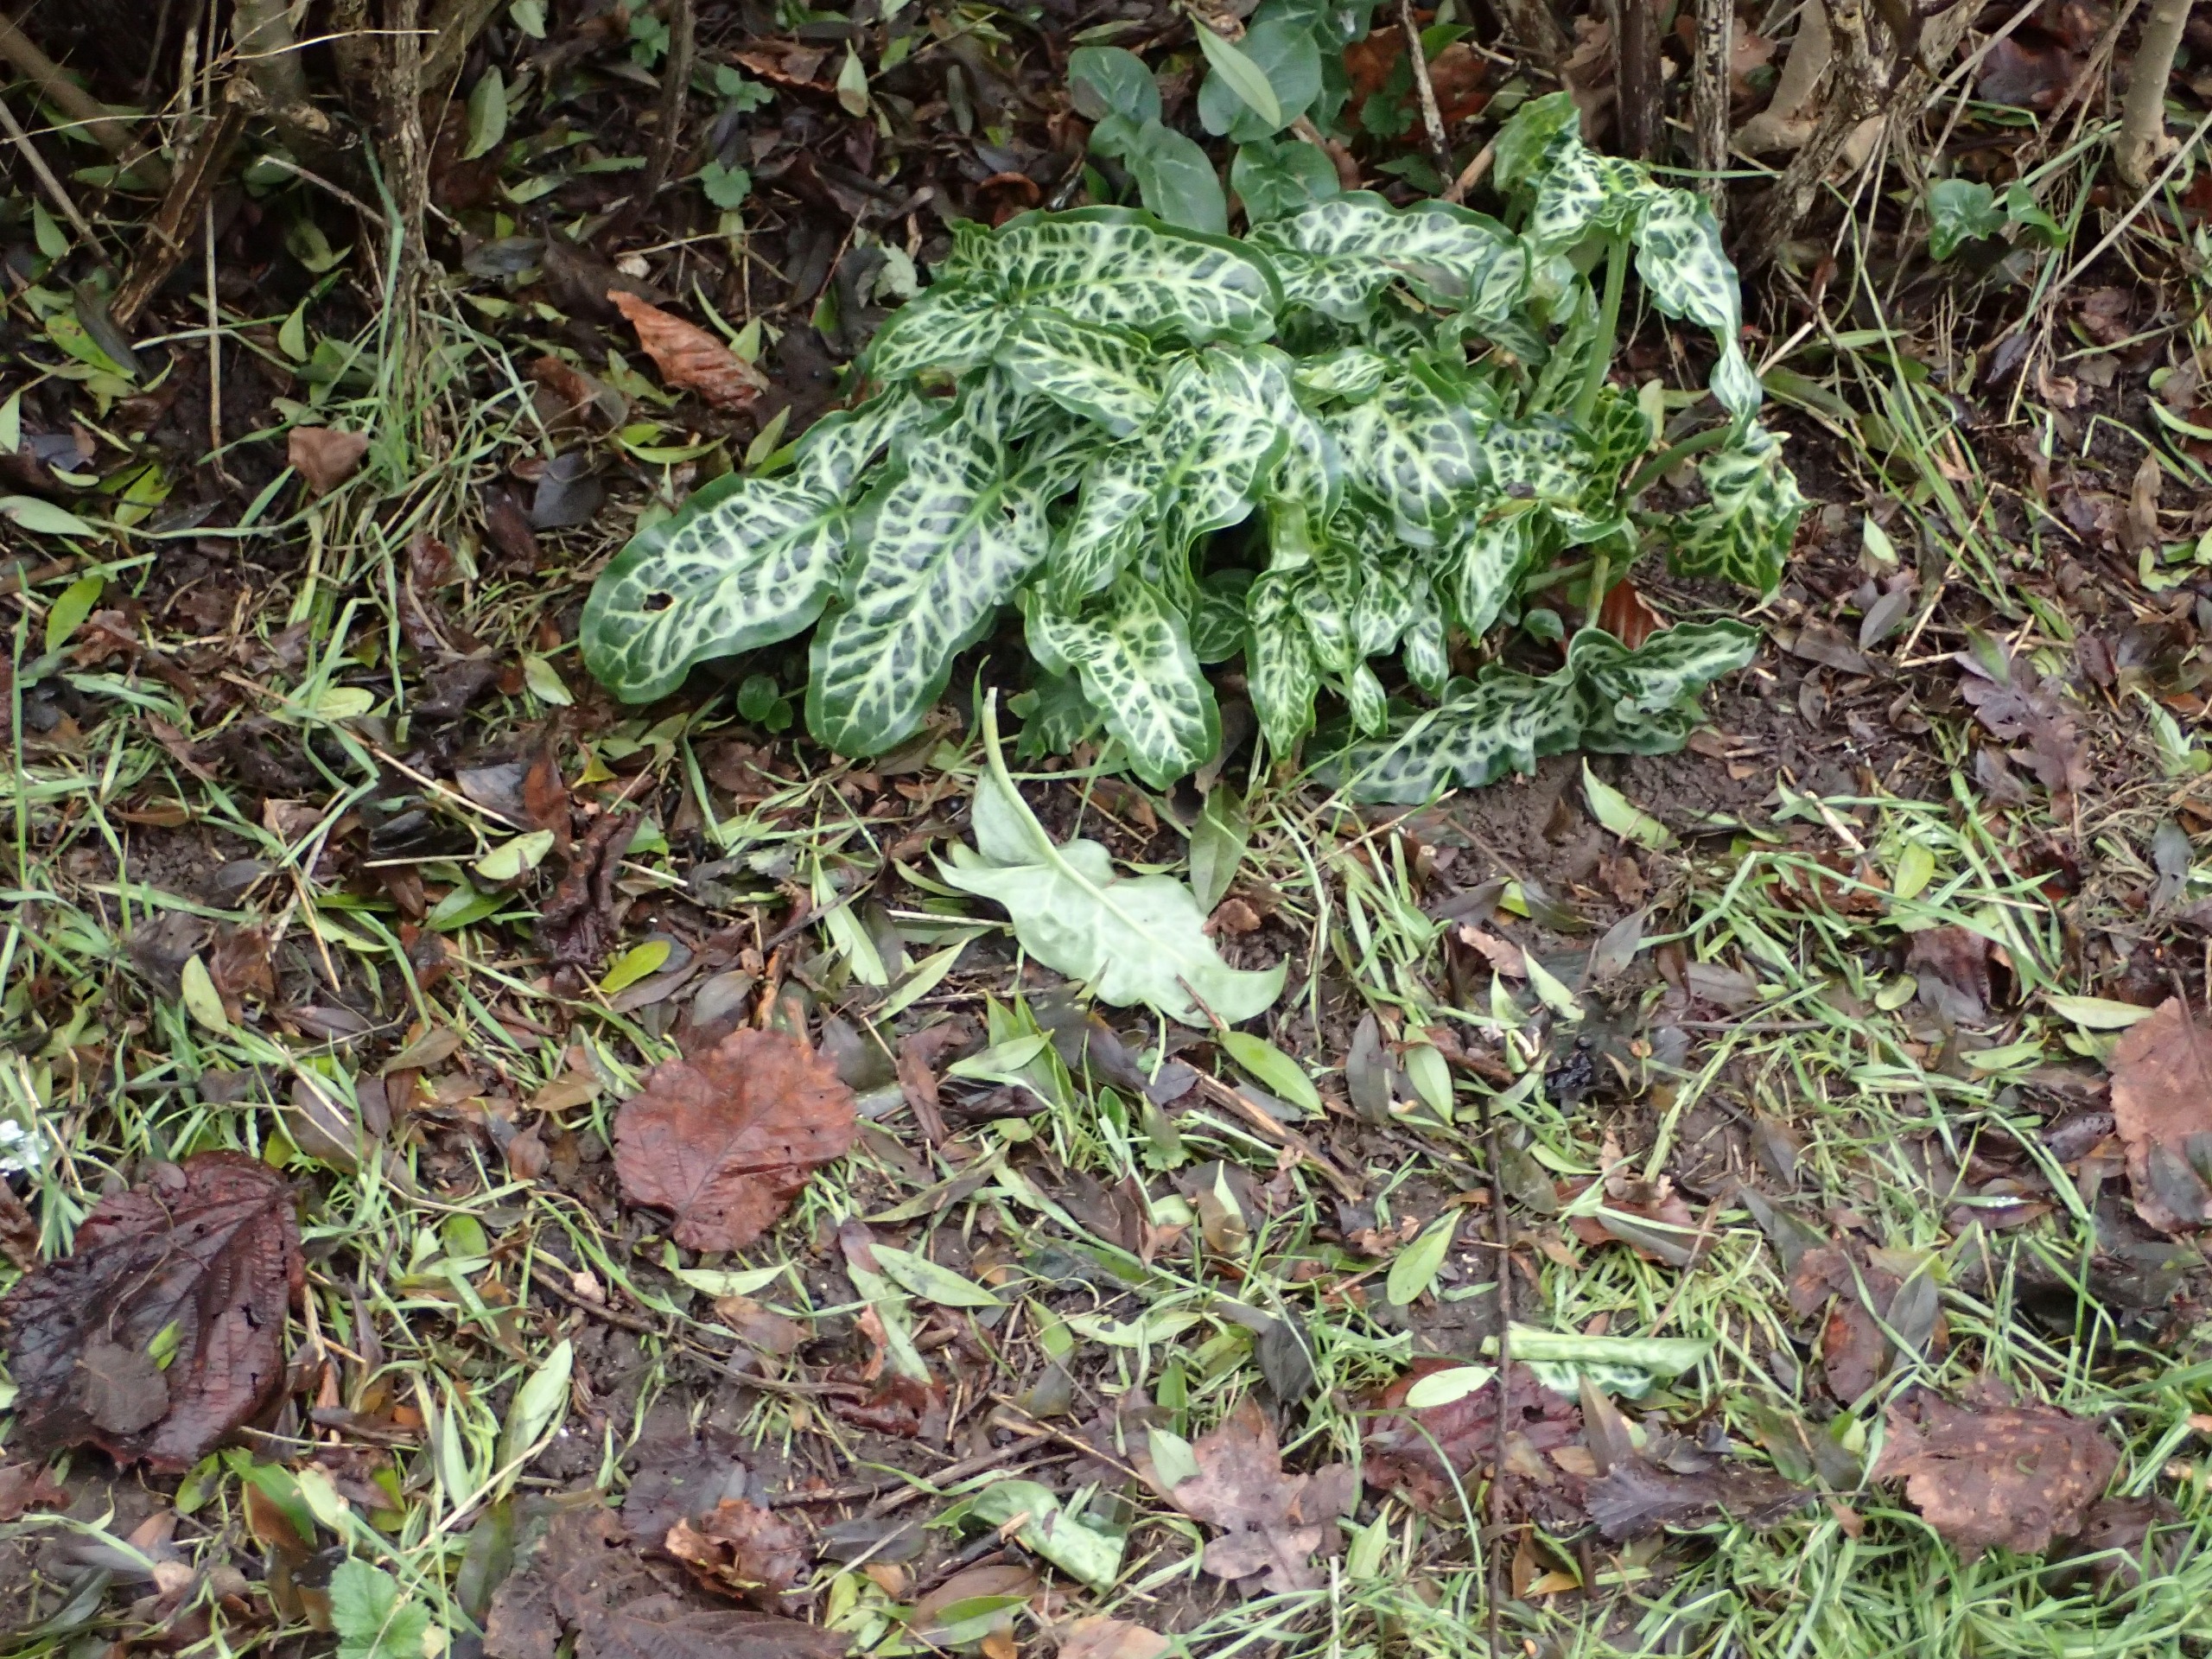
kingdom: Plantae
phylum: Tracheophyta
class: Liliopsida
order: Alismatales
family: Araceae
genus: Arum
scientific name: Arum italicum
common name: Italiensk arum
